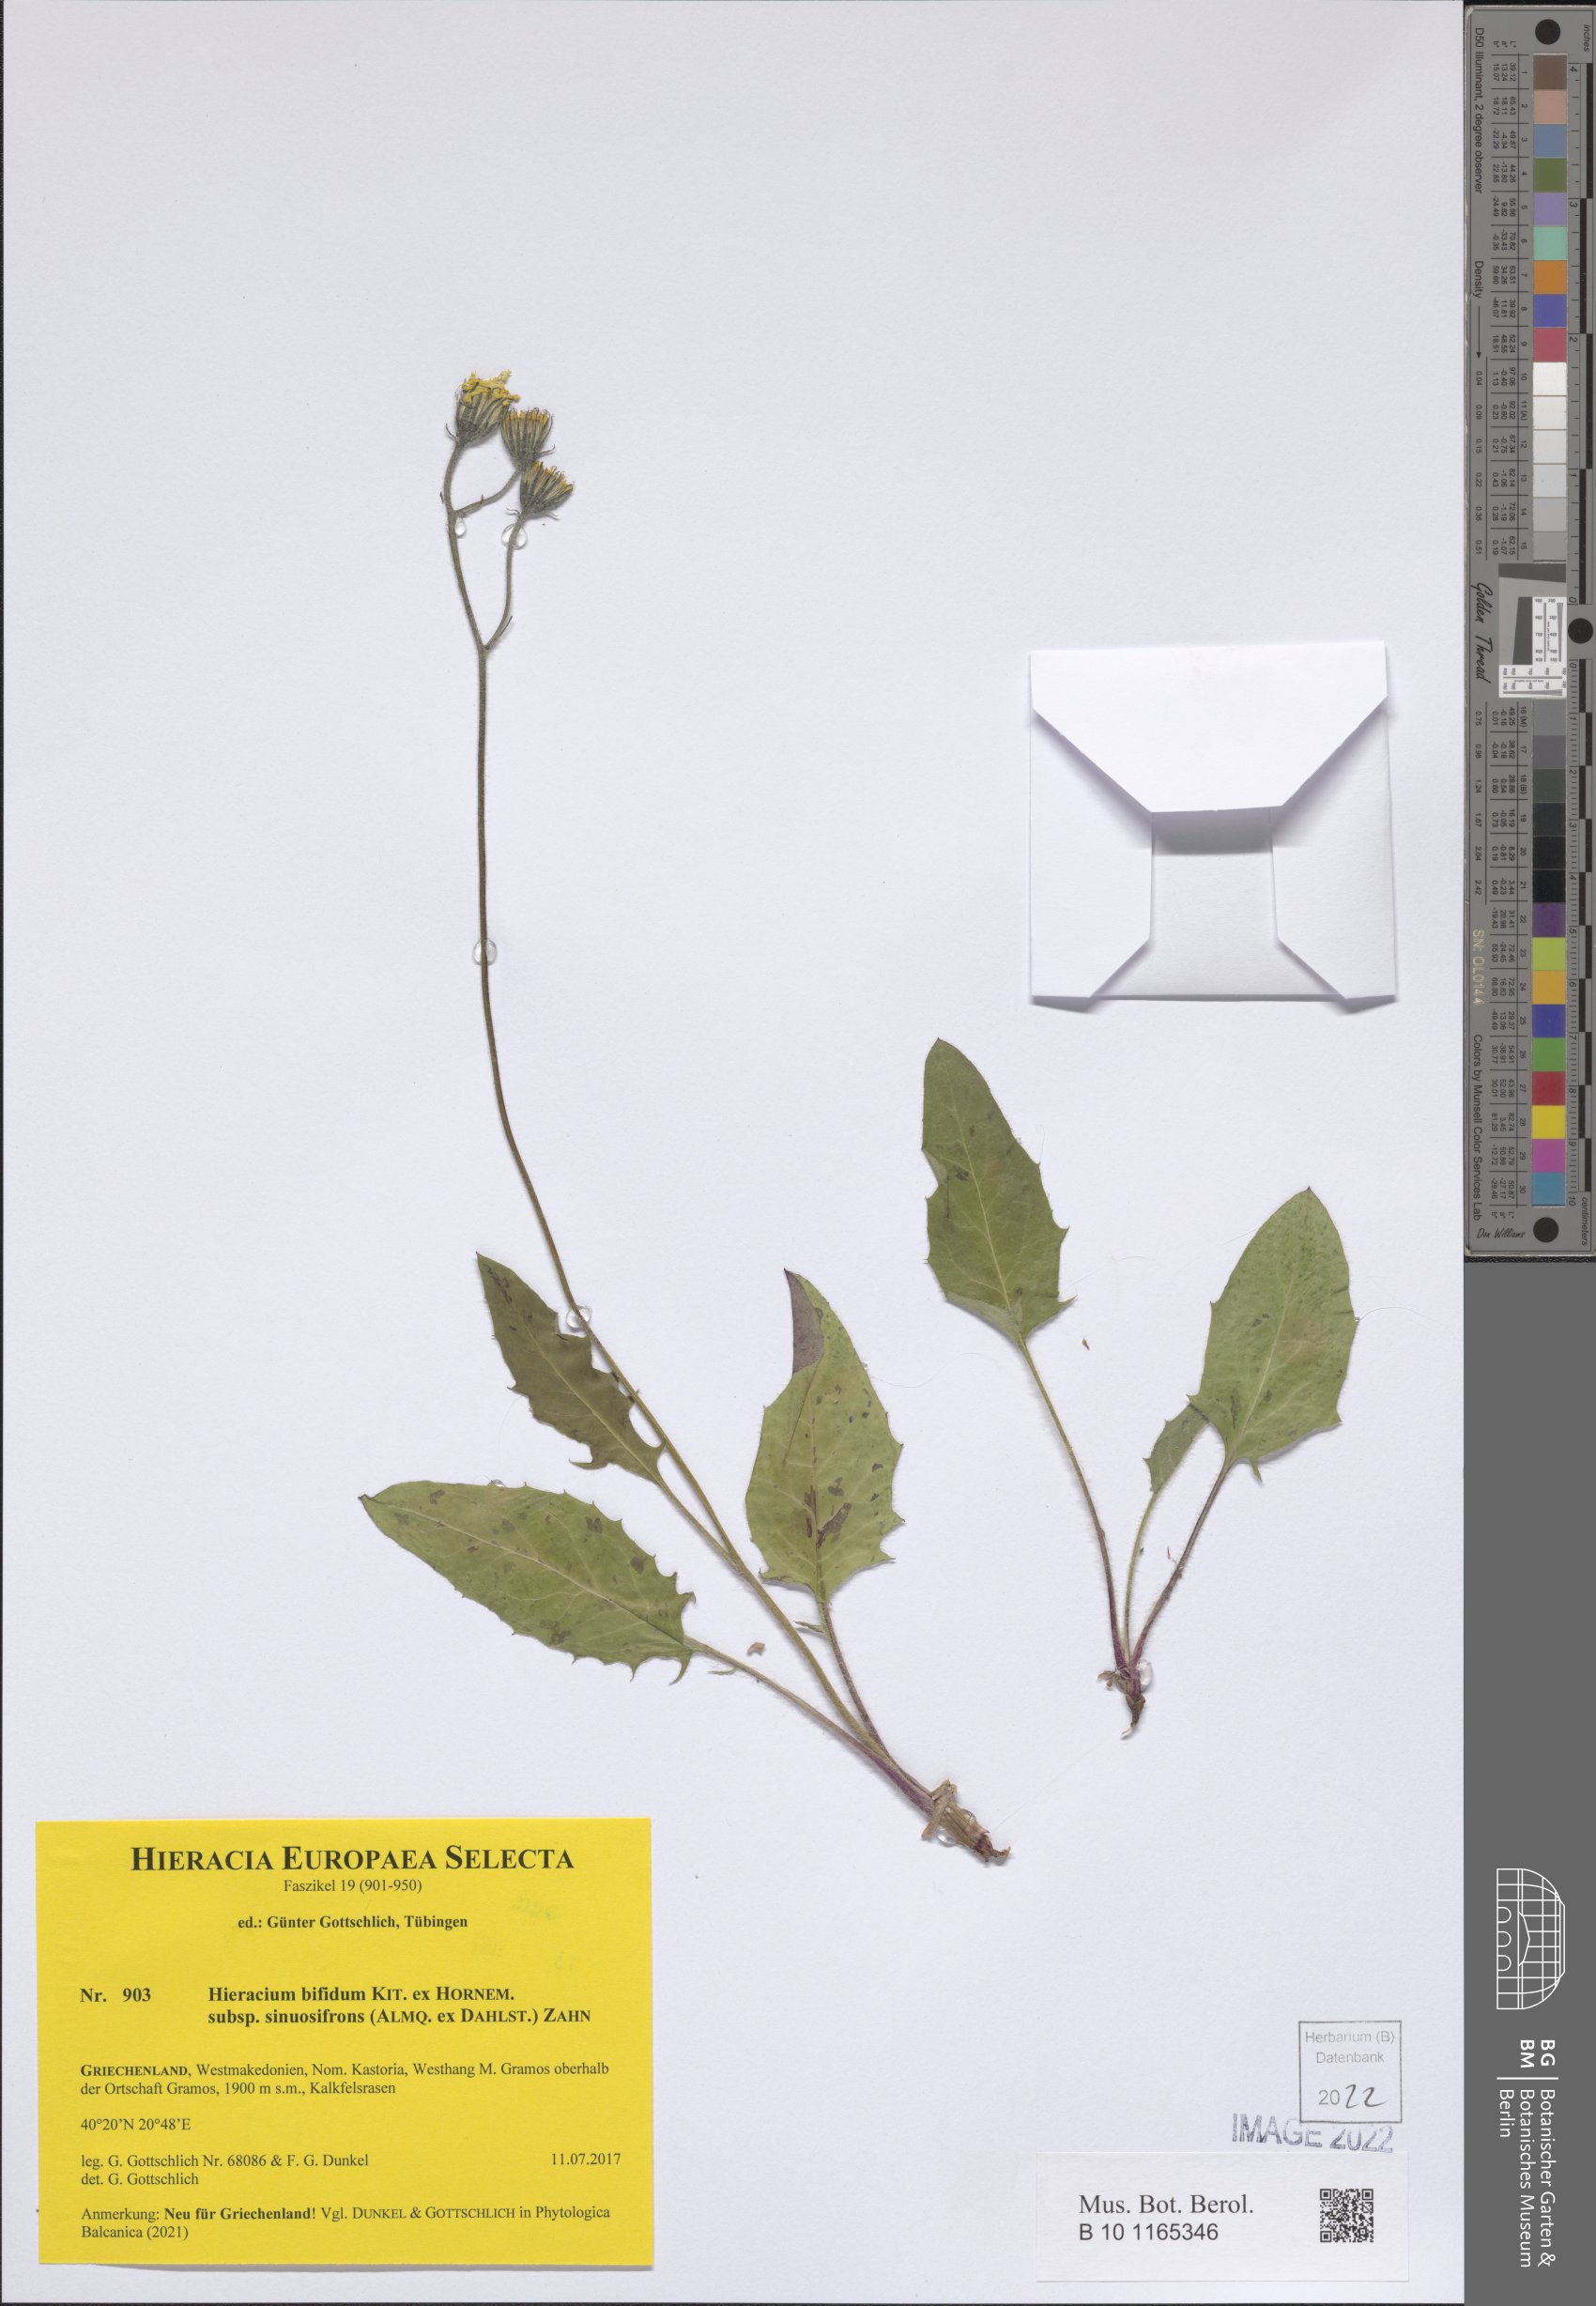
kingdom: Plantae
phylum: Tracheophyta
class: Magnoliopsida
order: Asterales
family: Asteraceae
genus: Hieracium
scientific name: Hieracium bifidum
